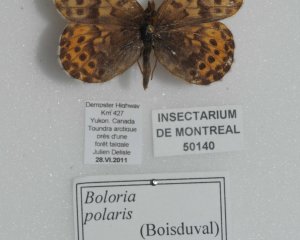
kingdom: Animalia
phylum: Arthropoda
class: Insecta
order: Lepidoptera
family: Nymphalidae
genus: Clossiana
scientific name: Clossiana polaris
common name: Polaris Fritillary
